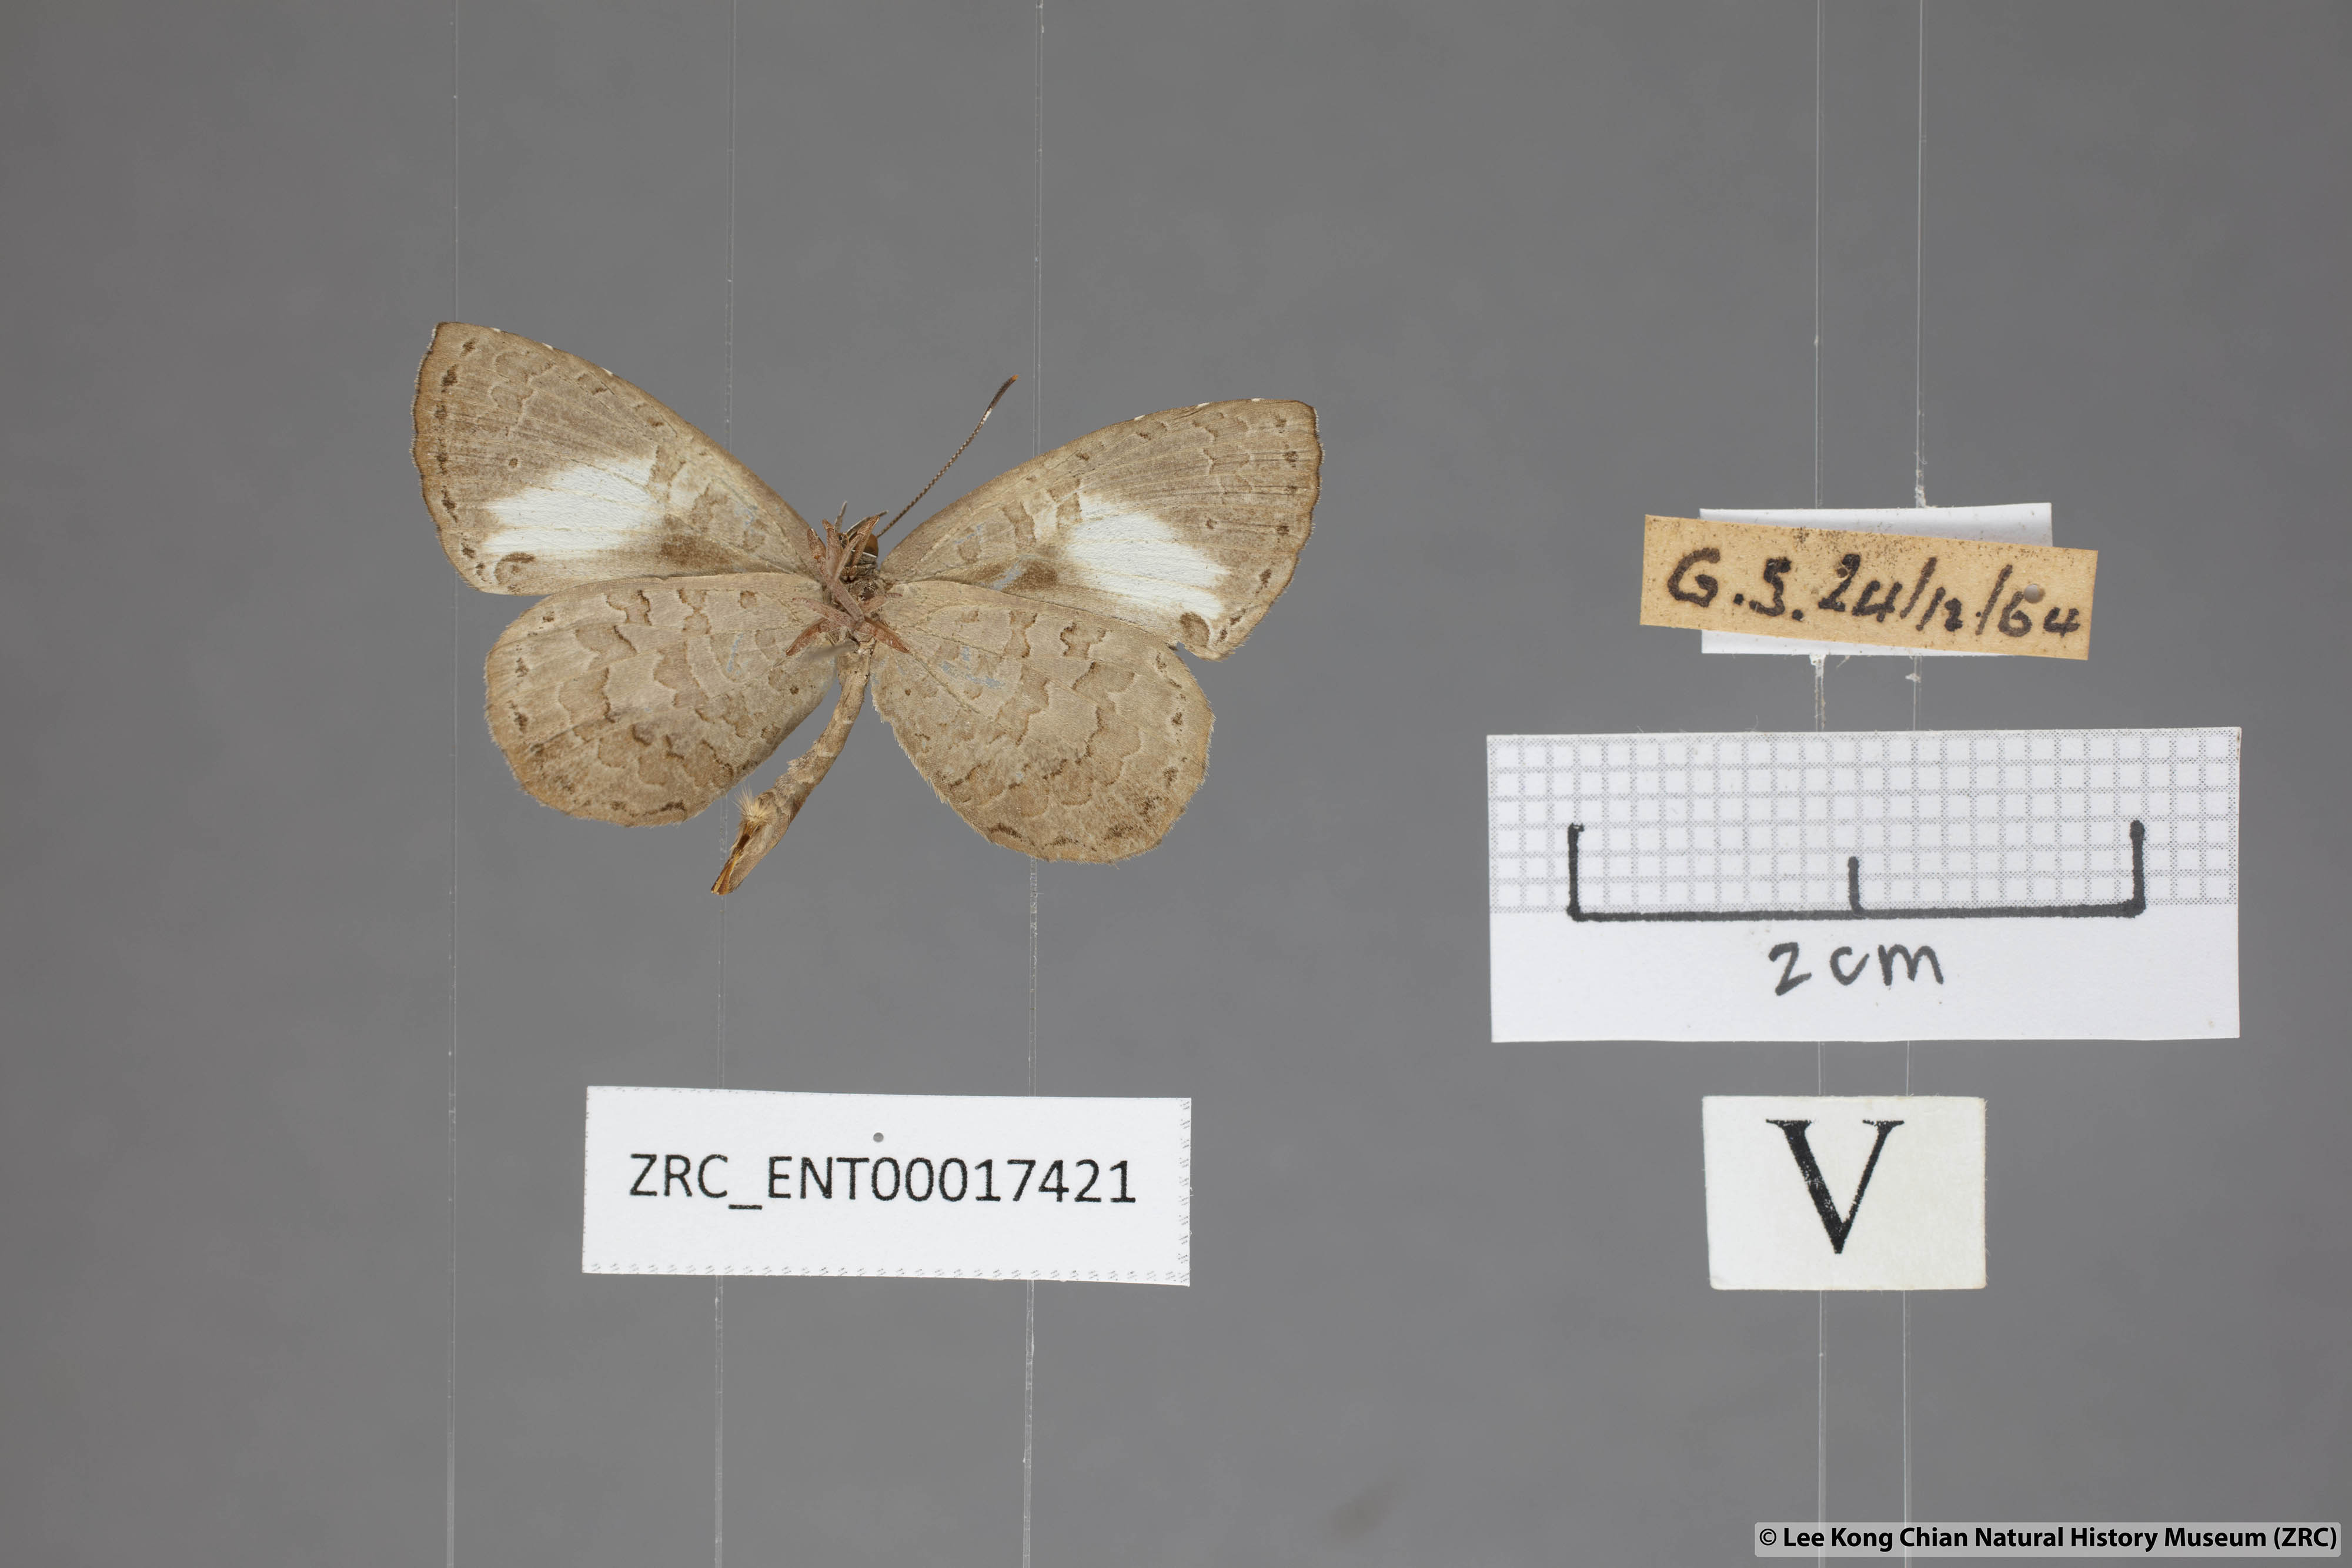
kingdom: Animalia
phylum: Arthropoda
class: Insecta
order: Lepidoptera
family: Lycaenidae
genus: Miletus
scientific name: Miletus biggsii
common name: Bigg's brownie
